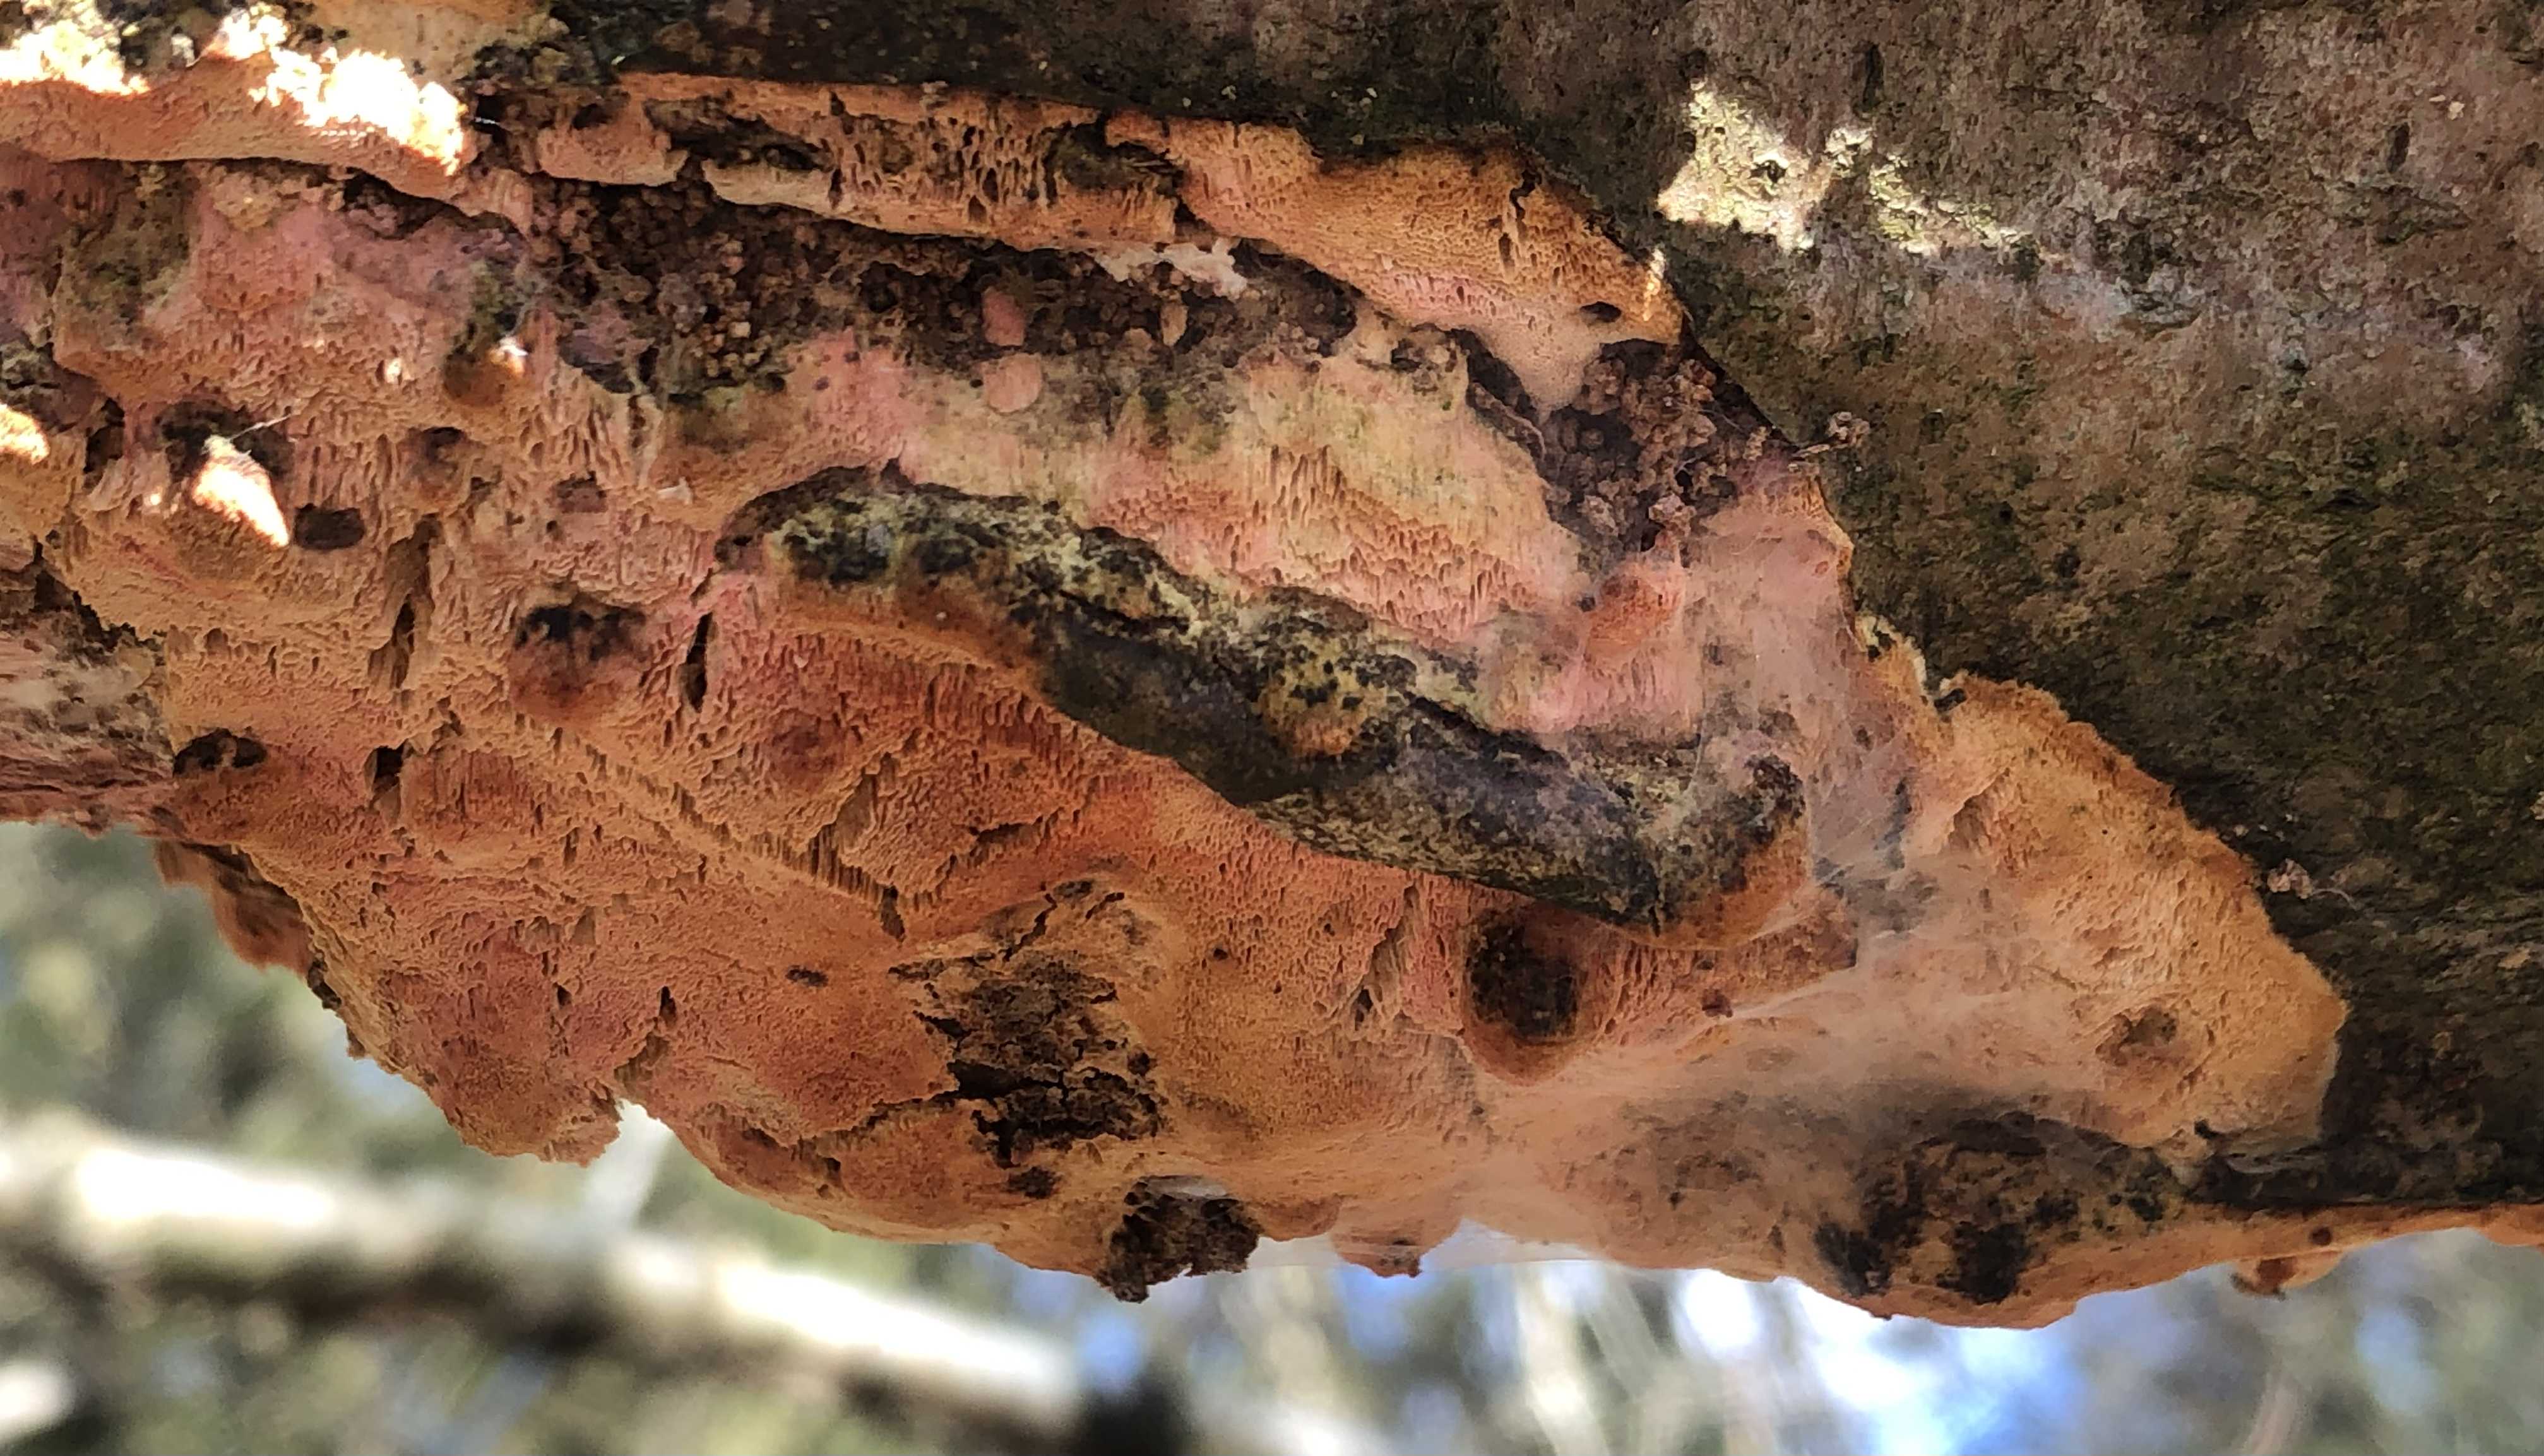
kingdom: Fungi
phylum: Basidiomycota
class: Agaricomycetes
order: Polyporales
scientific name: Polyporales
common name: poresvampordenen
